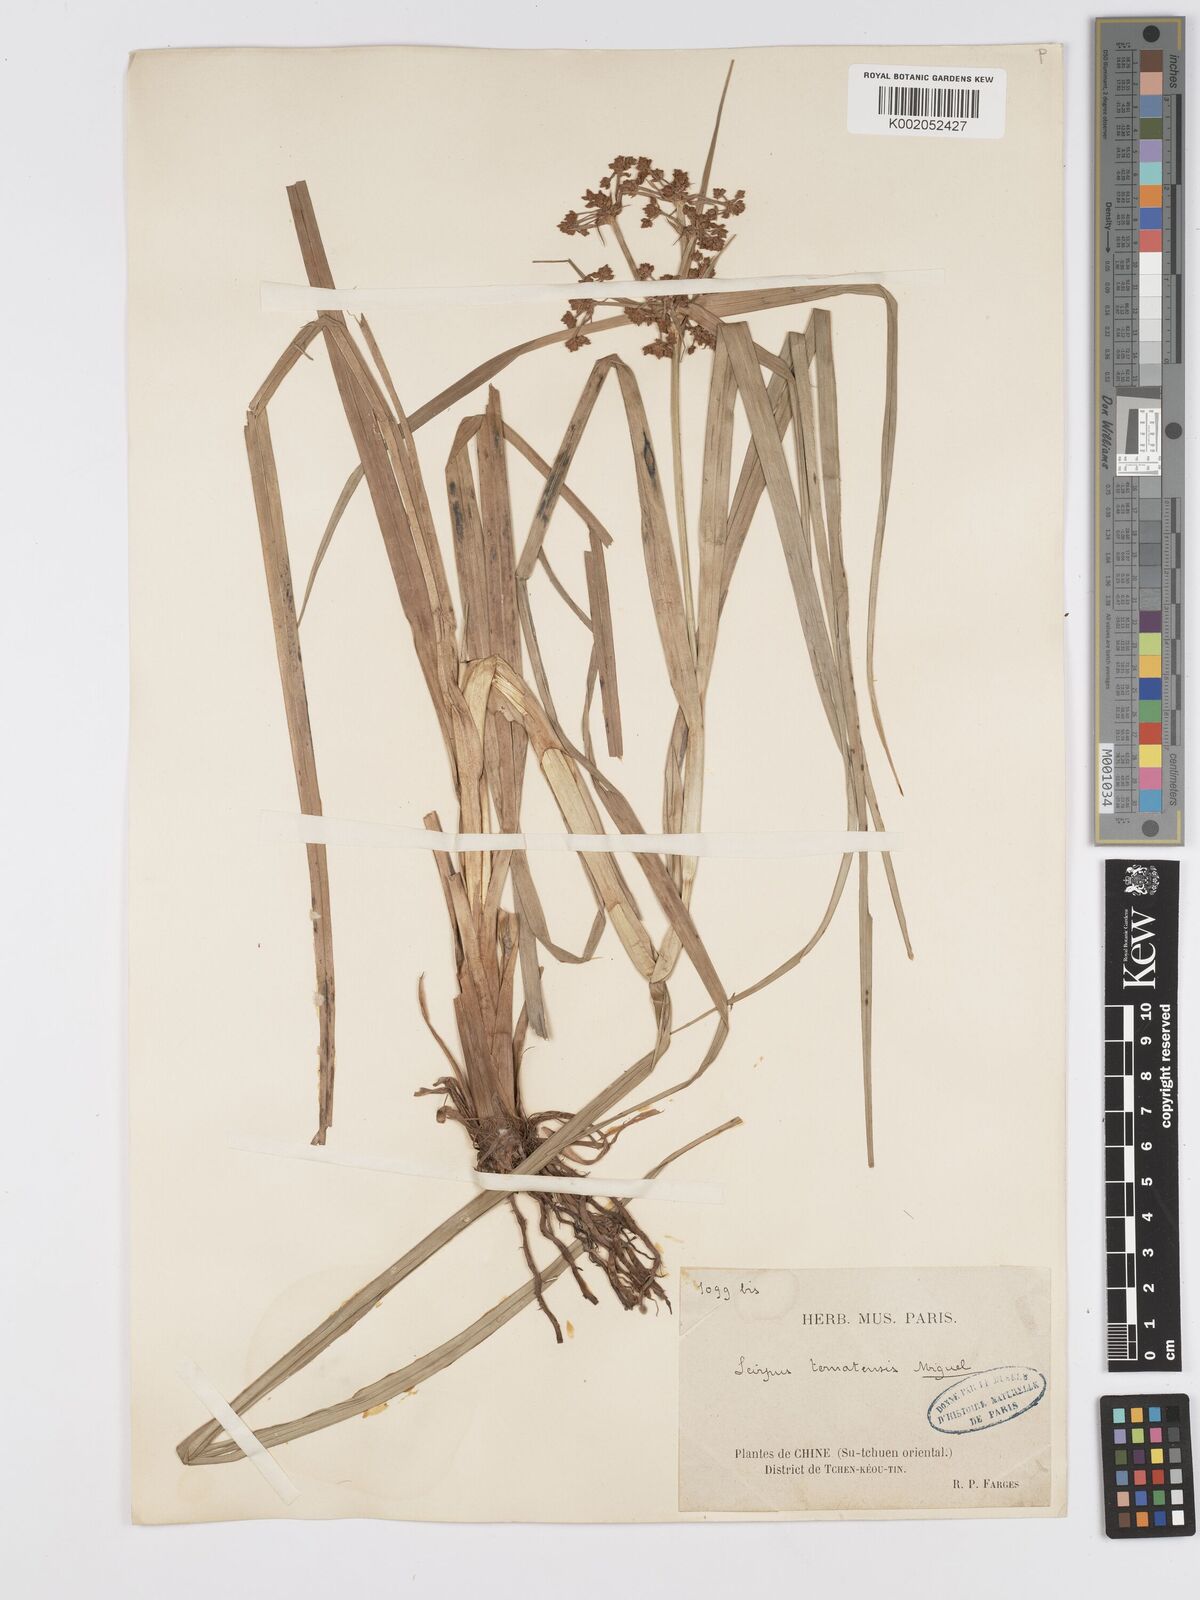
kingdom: Plantae
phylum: Tracheophyta
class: Liliopsida
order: Poales
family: Cyperaceae
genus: Scirpus
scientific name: Scirpus ternatanus
